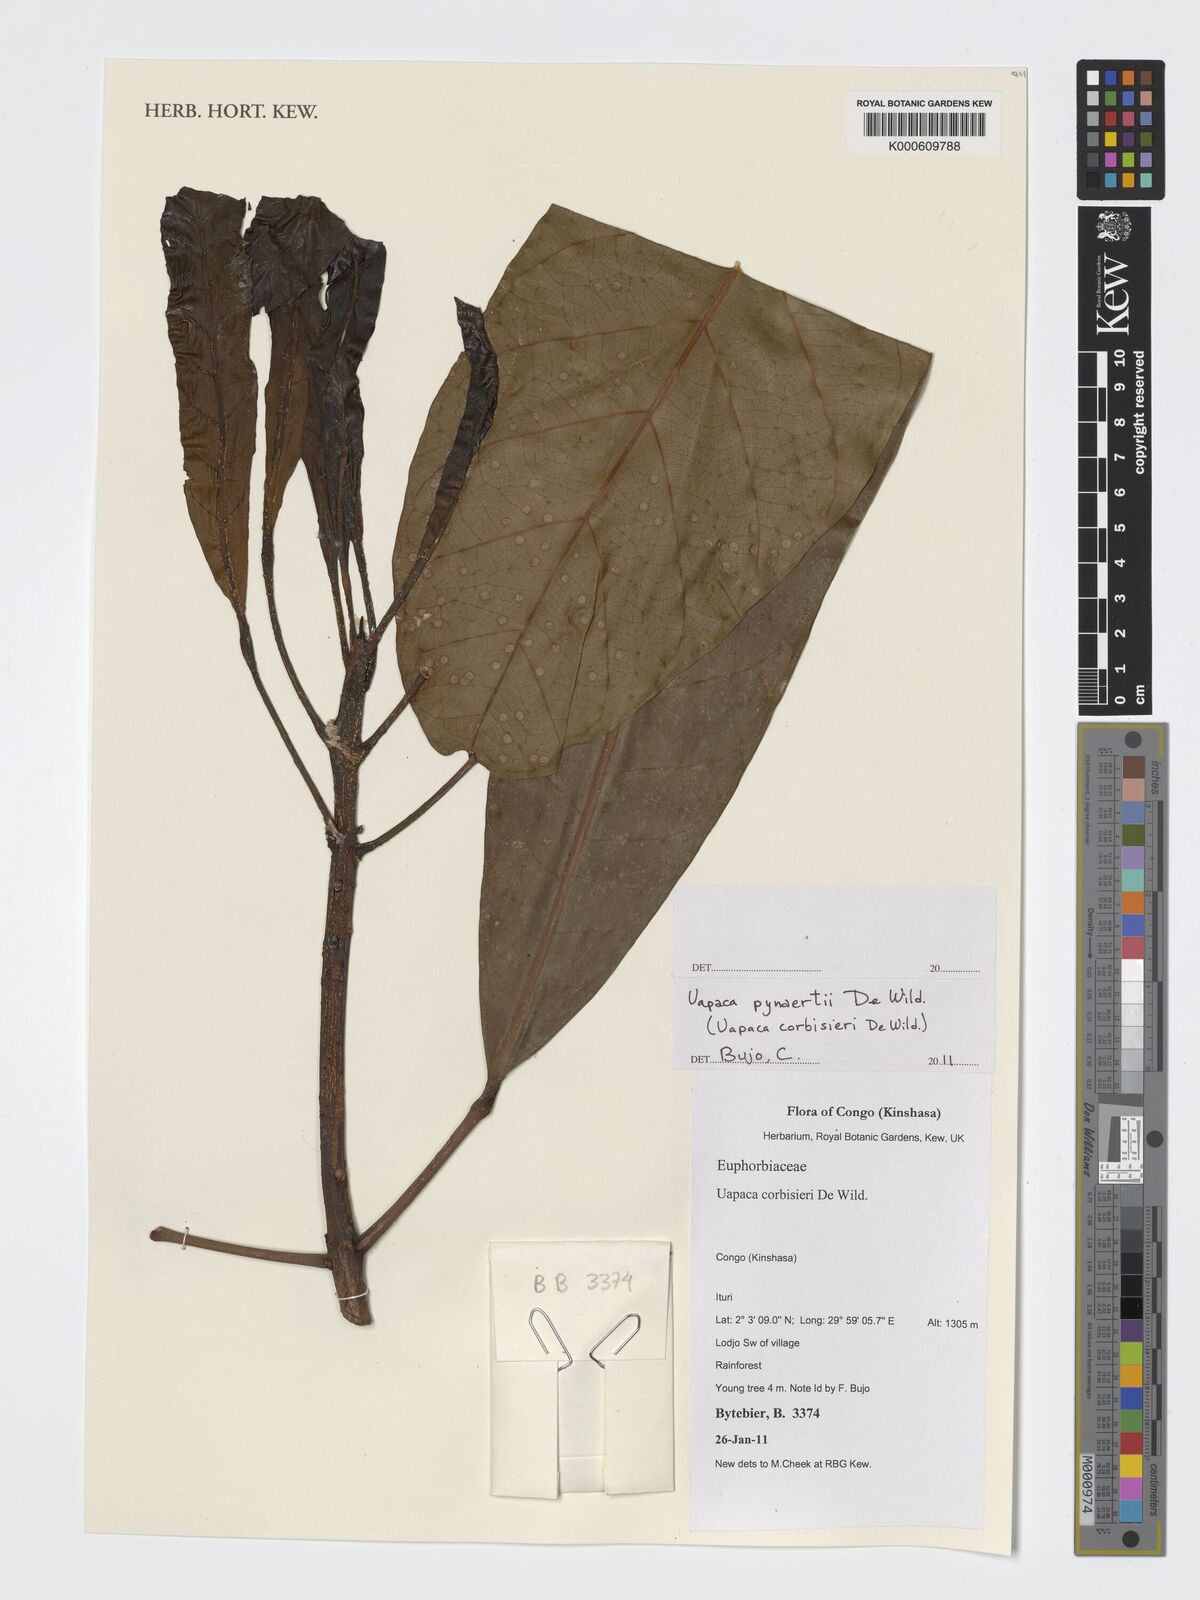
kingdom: Plantae
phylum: Tracheophyta
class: Magnoliopsida
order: Malpighiales
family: Phyllanthaceae
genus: Uapaca
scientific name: Uapaca pynaertii
